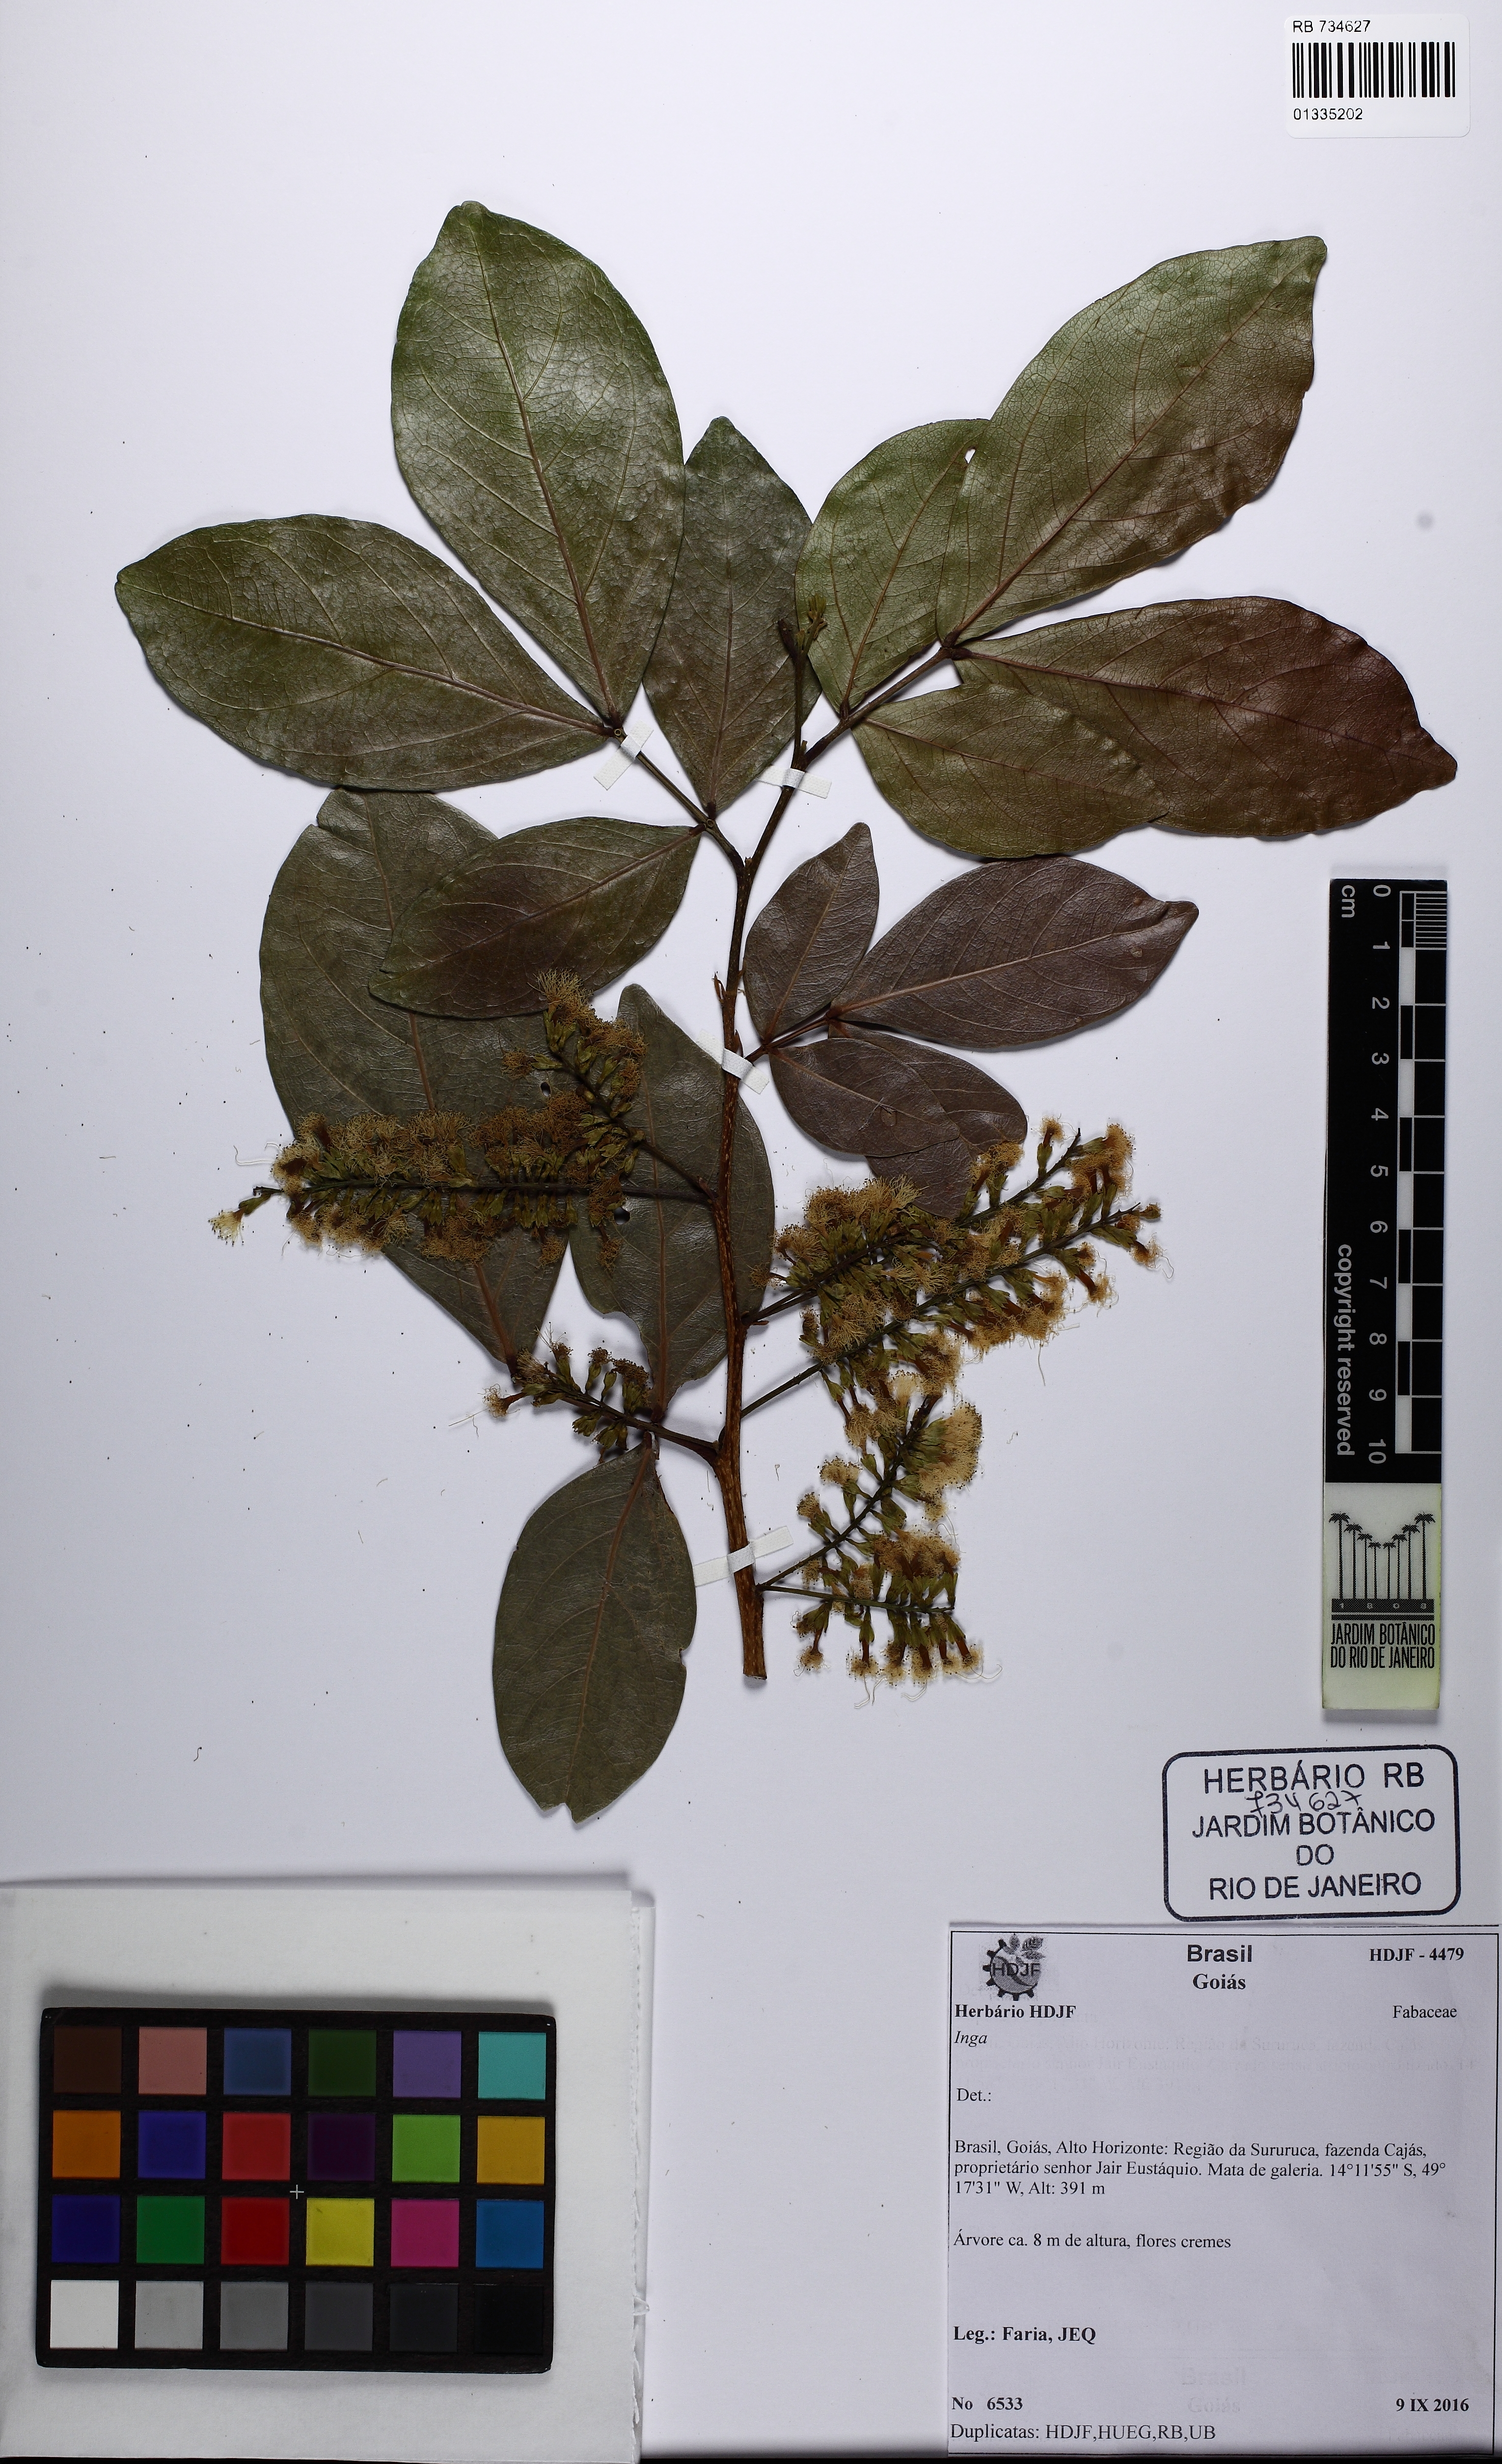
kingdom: Plantae
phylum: Tracheophyta
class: Magnoliopsida
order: Fabales
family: Fabaceae
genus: Inga
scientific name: Inga
